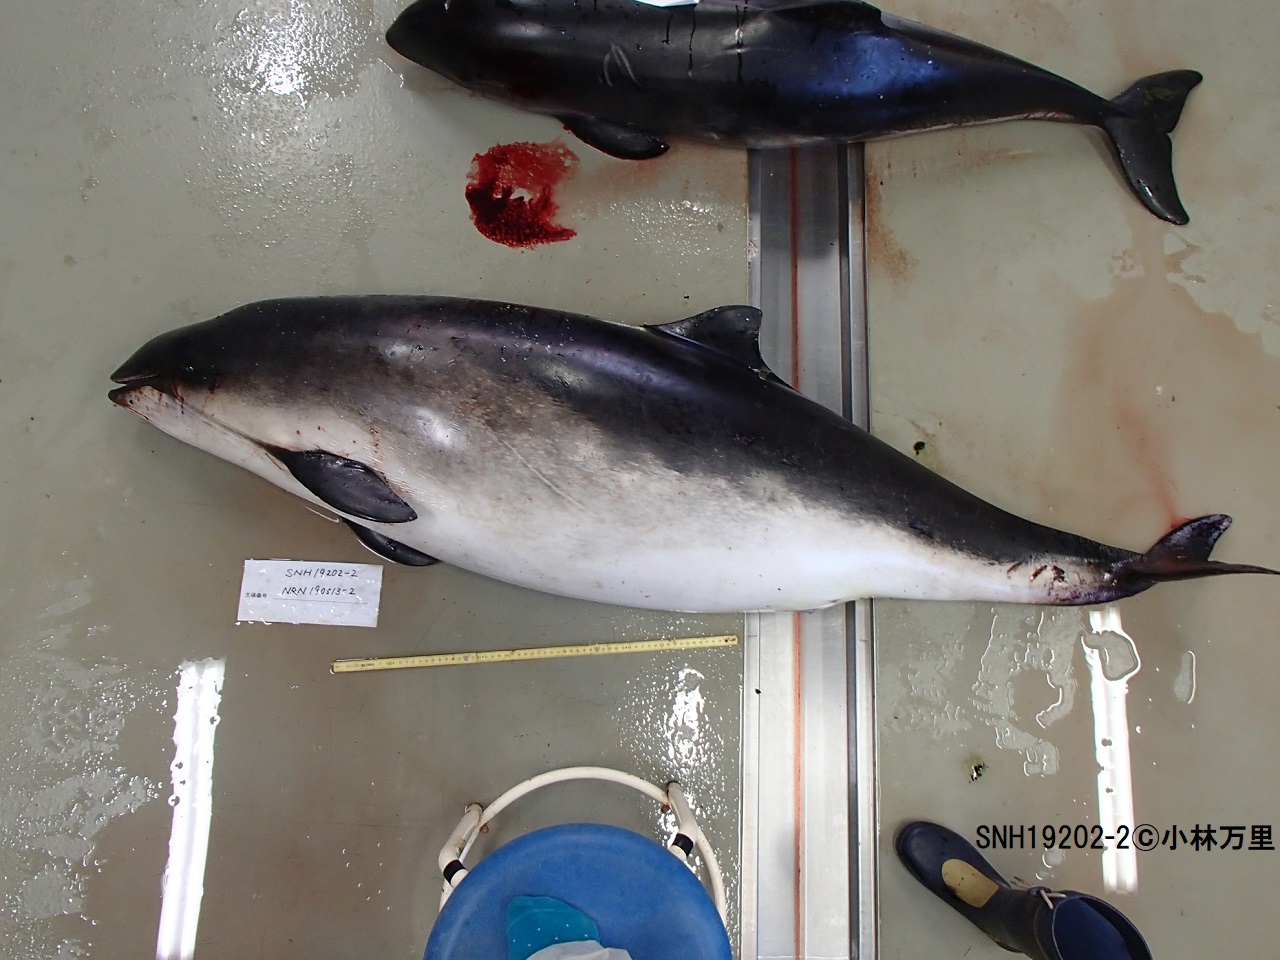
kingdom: Animalia
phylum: Chordata
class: Mammalia
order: Cetacea
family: Phocoenidae
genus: Phocoena
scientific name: Phocoena phocoena
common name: Harbour porpoise
